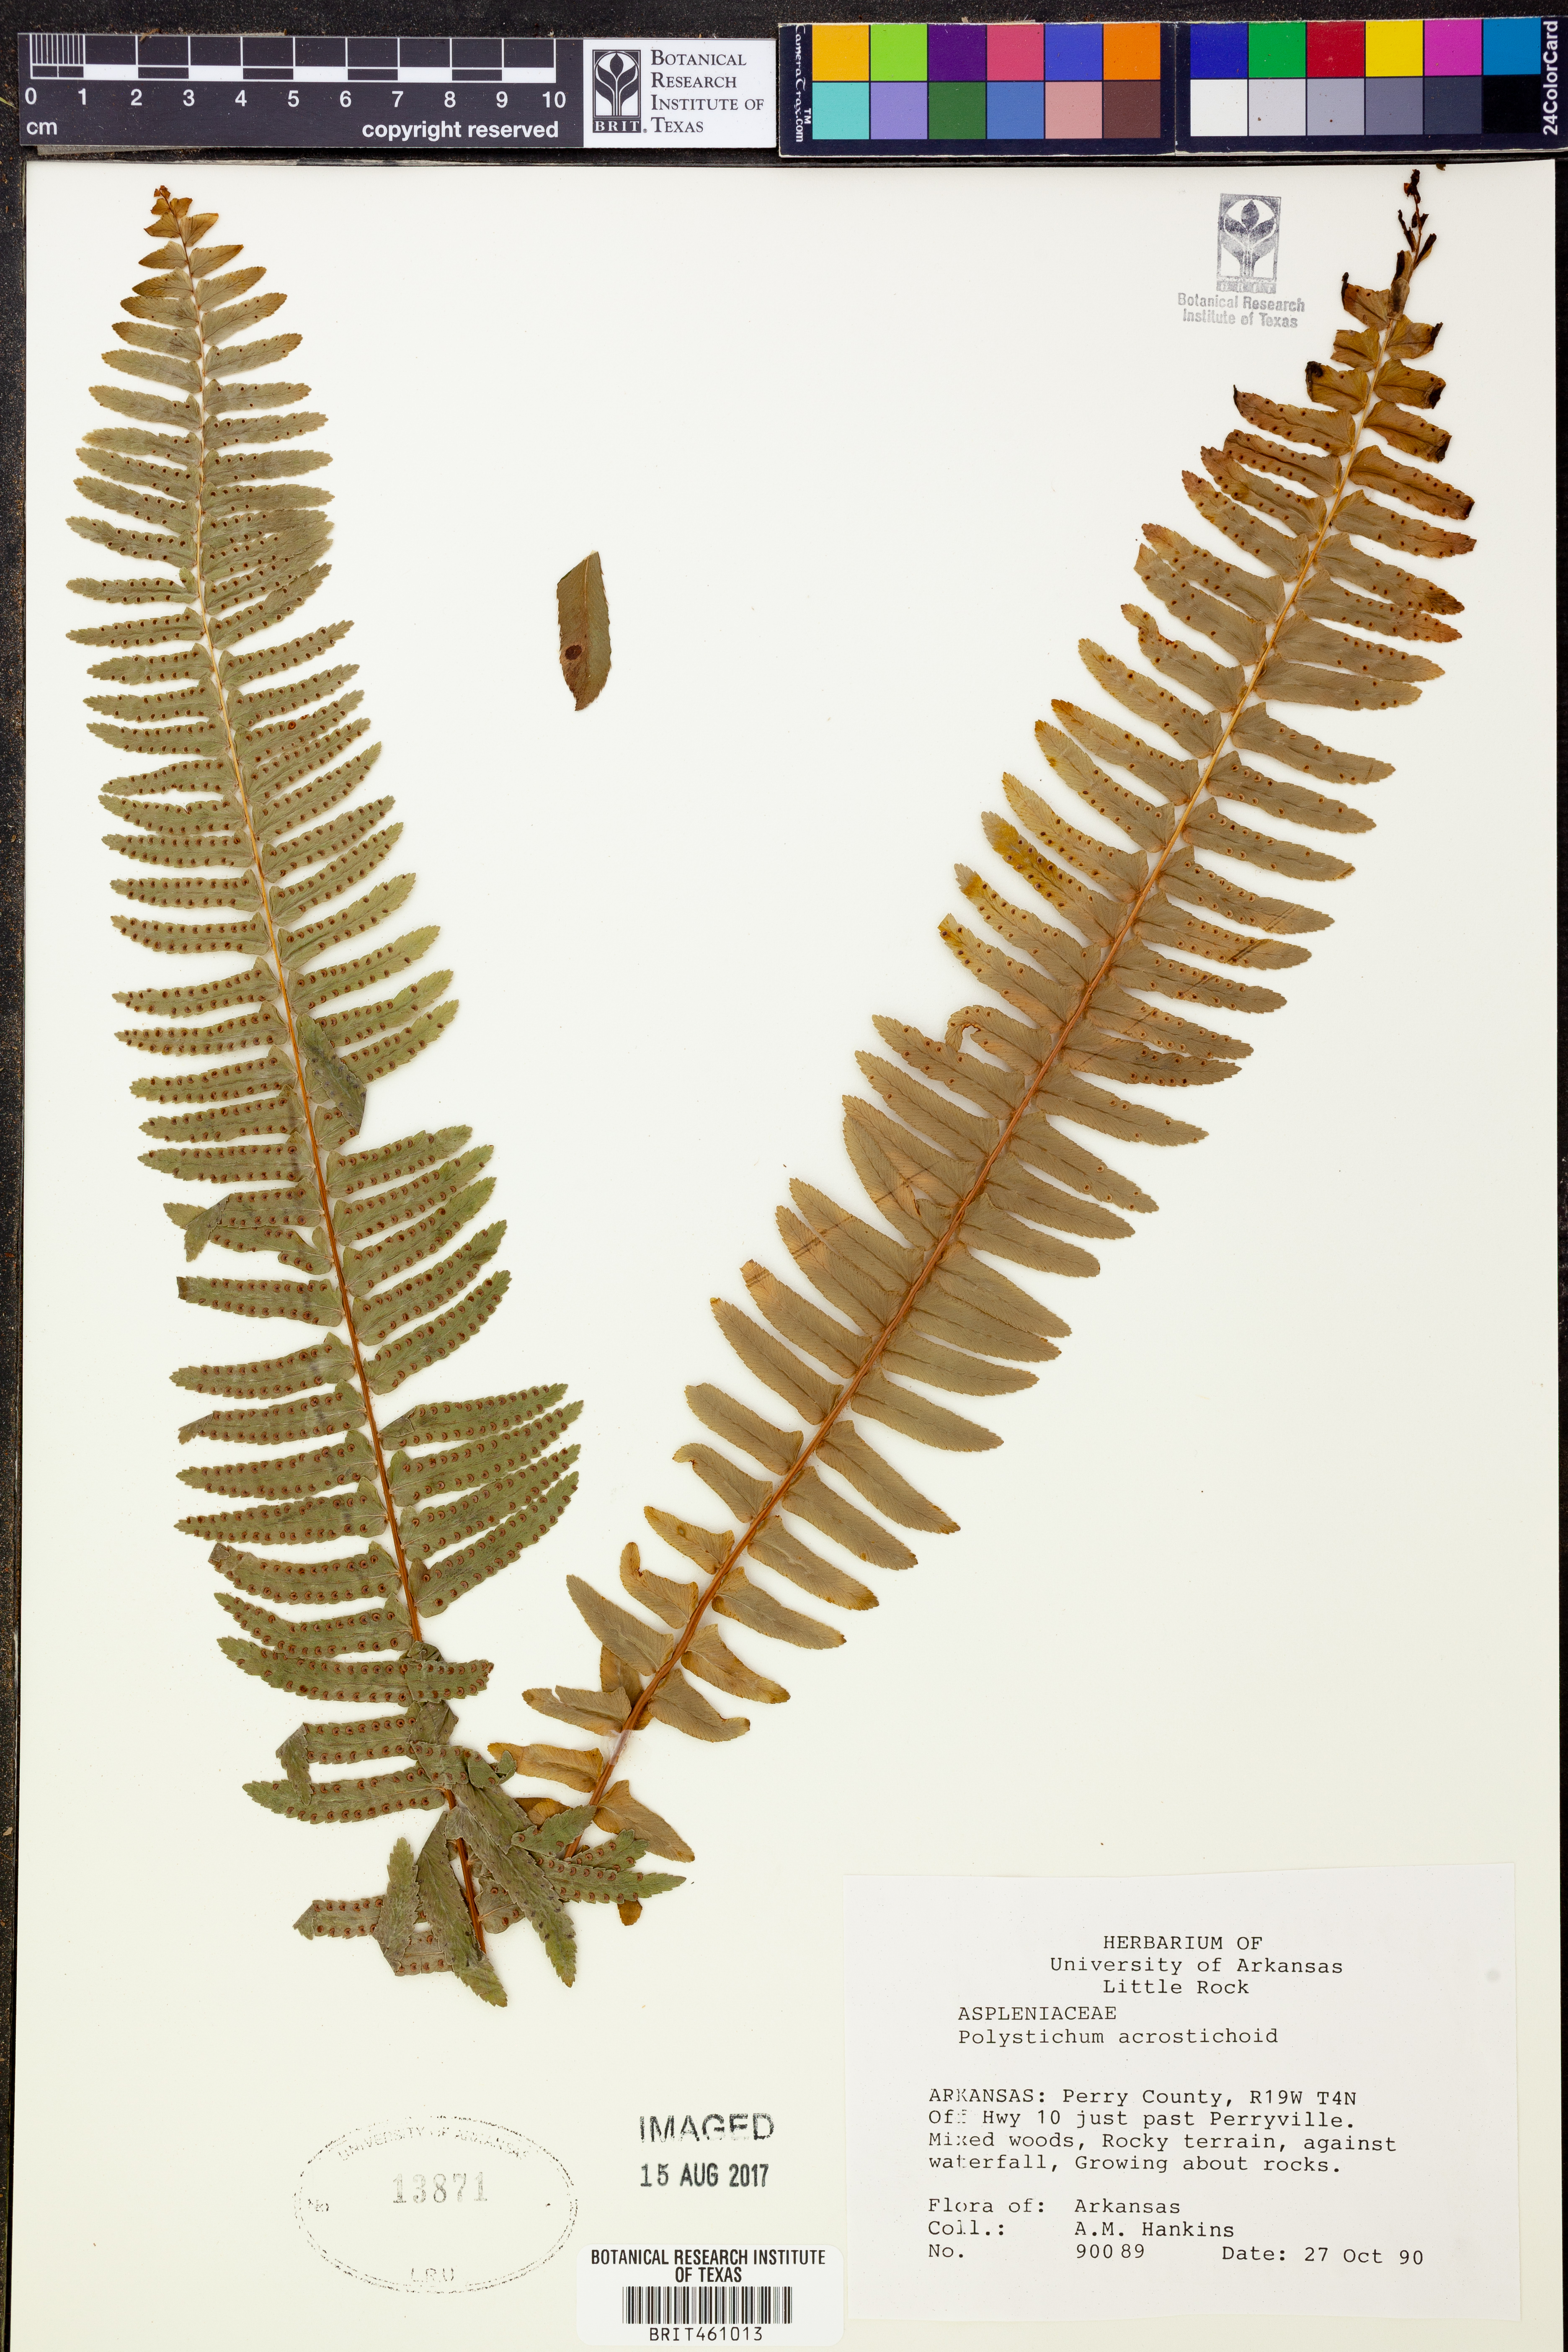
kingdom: Plantae
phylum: Tracheophyta
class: Polypodiopsida
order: Polypodiales
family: Dryopteridaceae
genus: Polystichum
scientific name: Polystichum acrostichoides
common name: Christmas fern
